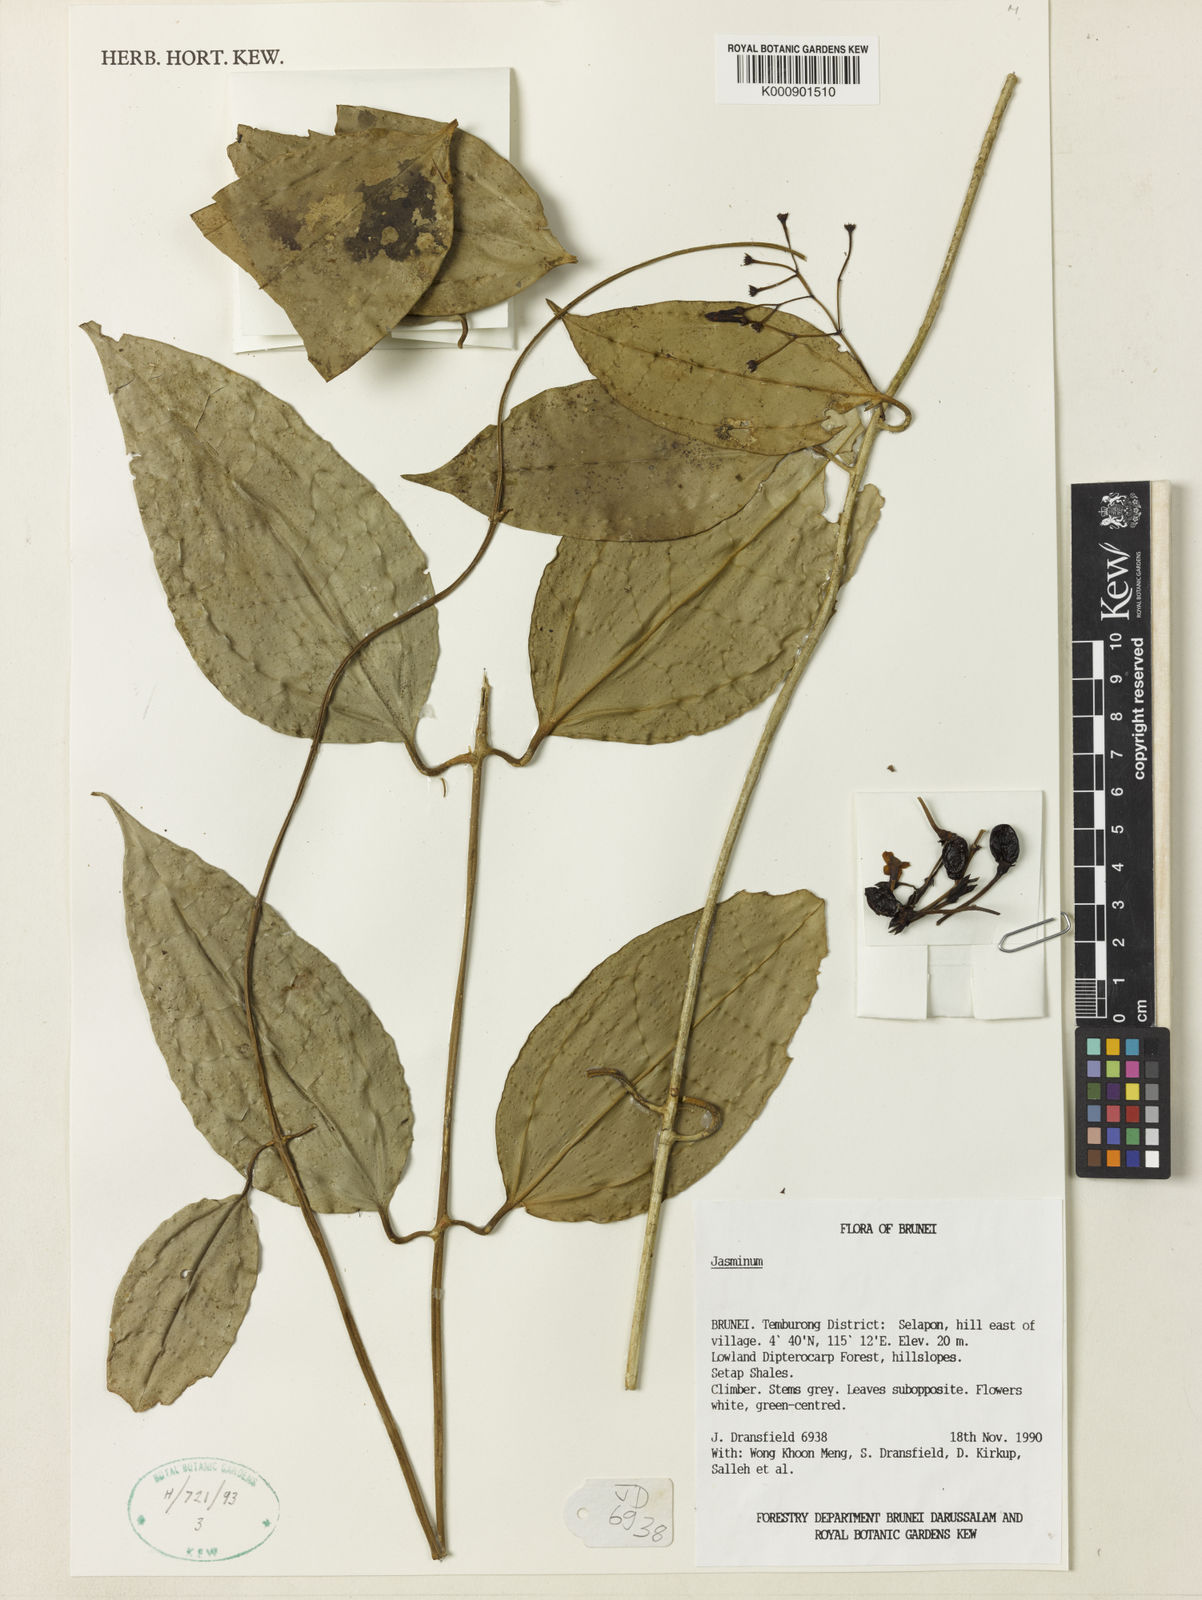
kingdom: Plantae
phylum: Tracheophyta
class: Magnoliopsida
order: Lamiales
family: Oleaceae
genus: Jasminum
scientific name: Jasminum steenisii
